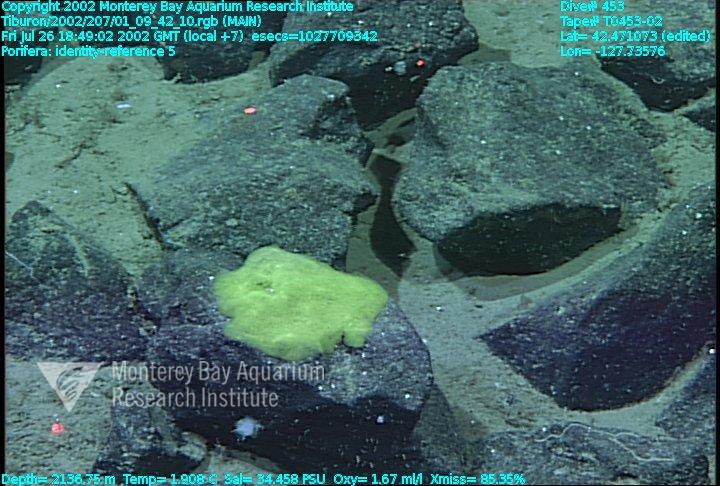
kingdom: Animalia
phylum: Porifera
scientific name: Porifera
